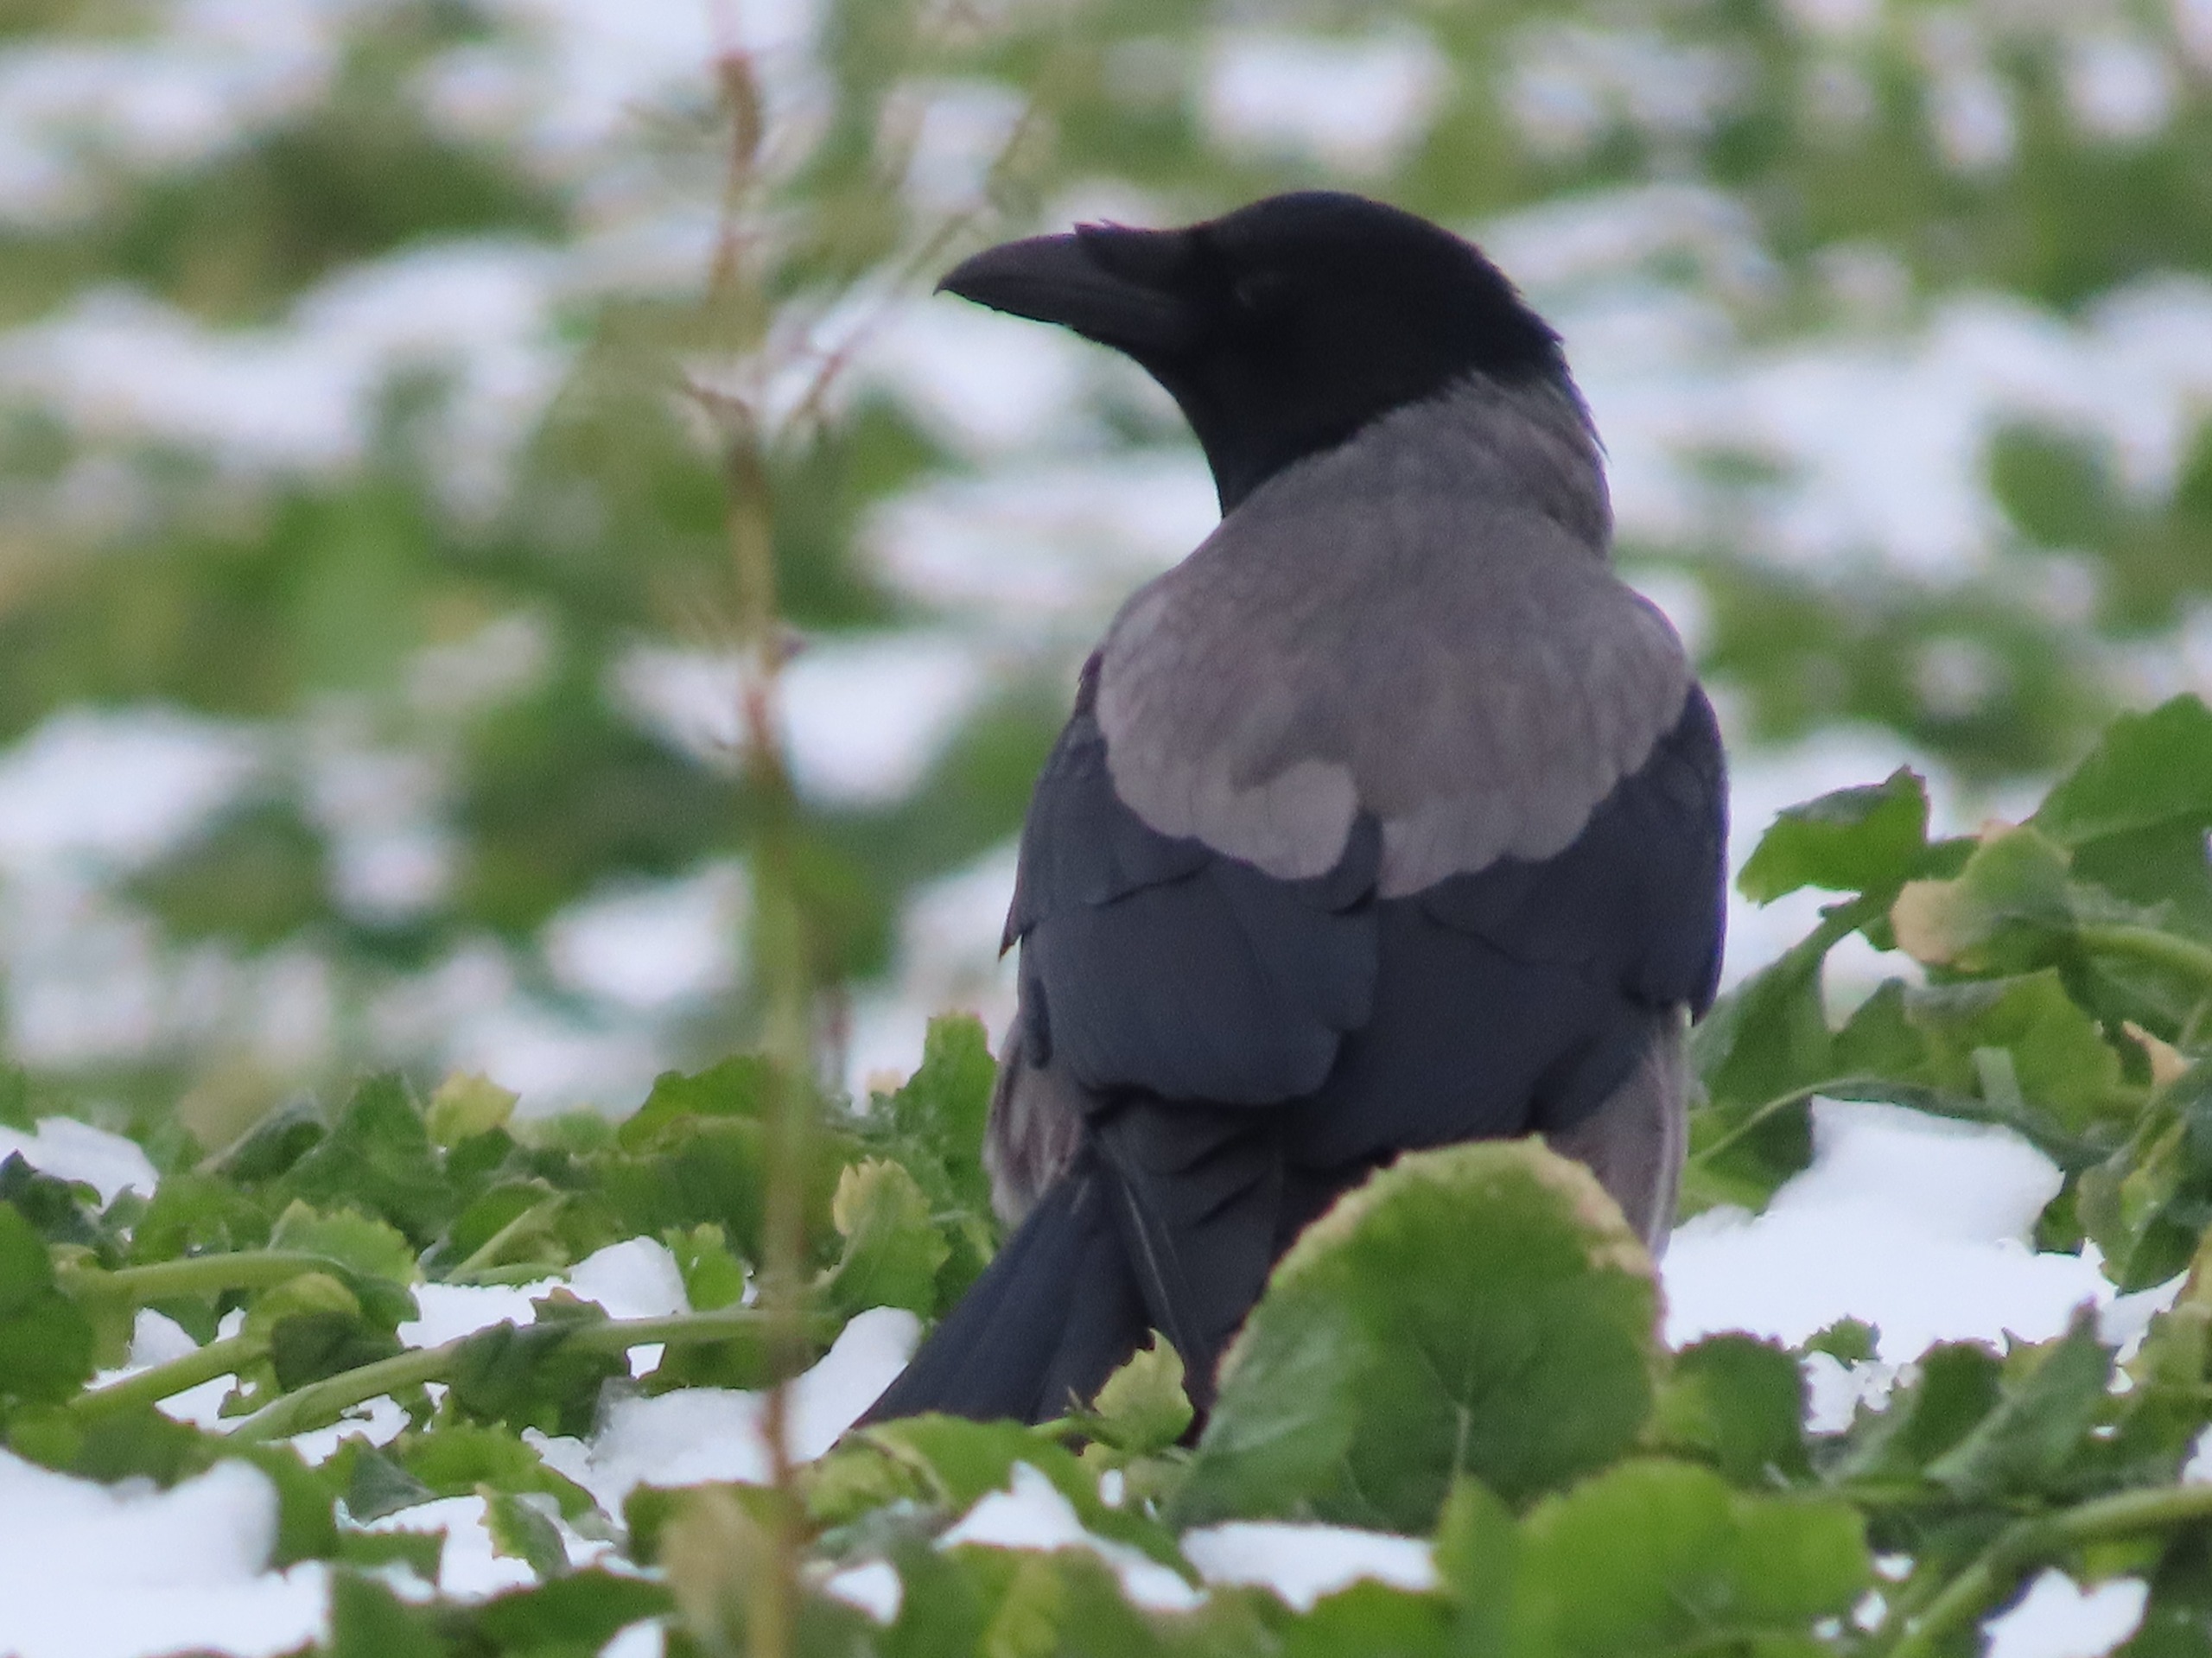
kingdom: Animalia
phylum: Chordata
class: Aves
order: Passeriformes
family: Corvidae
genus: Corvus
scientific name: Corvus cornix
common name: Gråkrage
